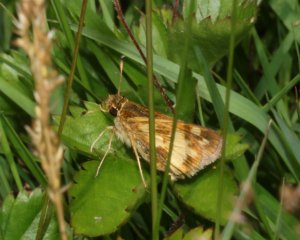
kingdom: Animalia
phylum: Arthropoda
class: Insecta
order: Lepidoptera
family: Hesperiidae
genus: Polites
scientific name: Polites coras
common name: Peck's Skipper
